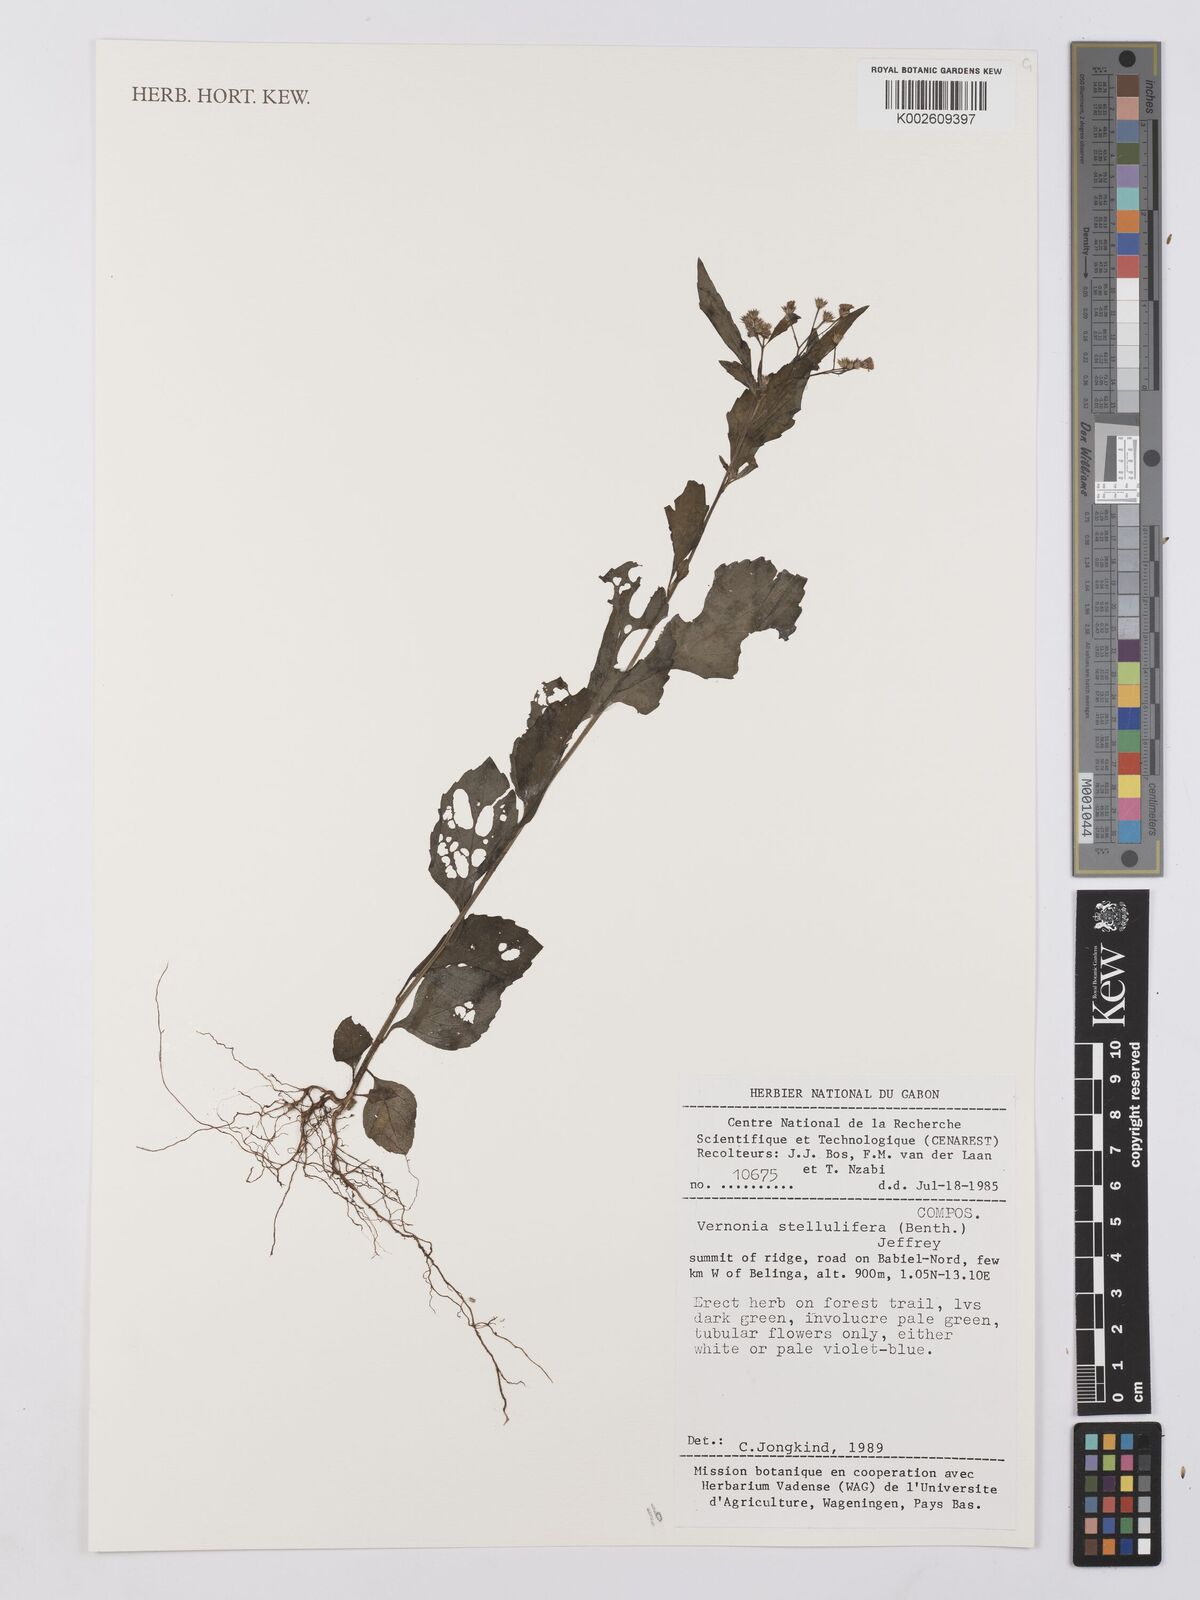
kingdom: Plantae
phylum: Tracheophyta
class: Magnoliopsida
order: Asterales
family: Asteraceae
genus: Cyanthillium
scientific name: Cyanthillium stelluliferum
